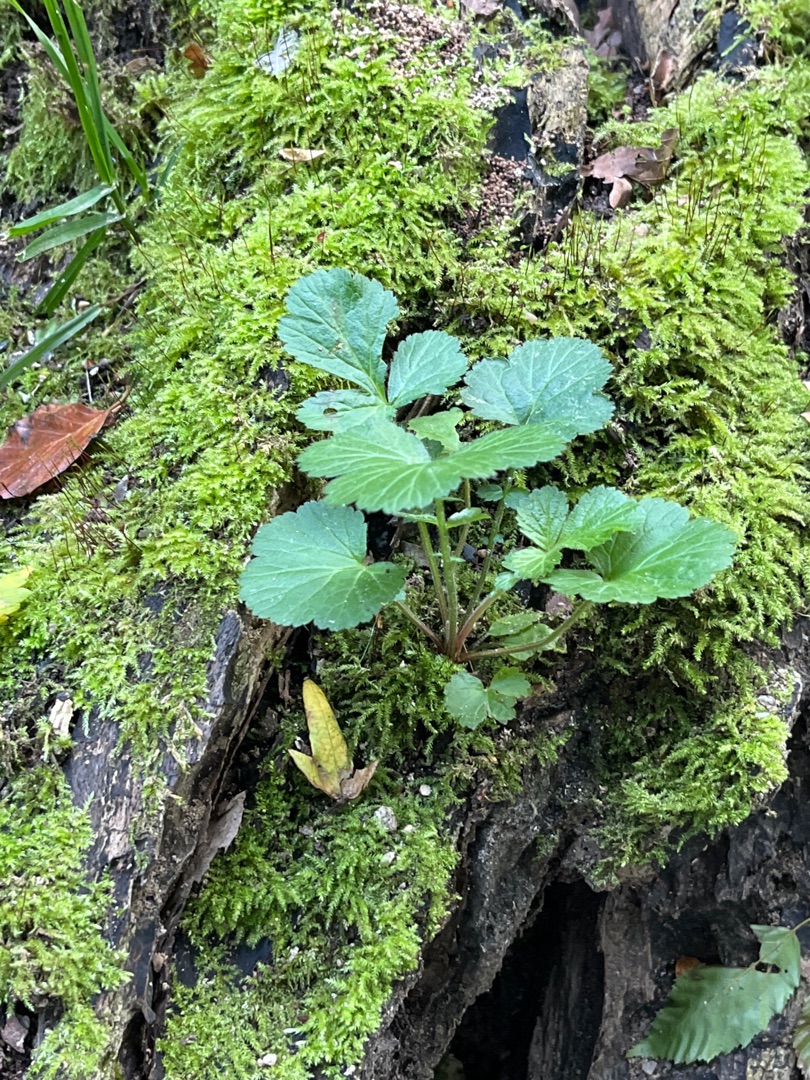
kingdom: Plantae
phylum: Tracheophyta
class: Magnoliopsida
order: Rosales
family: Rosaceae
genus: Geum
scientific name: Geum urbanum
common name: Feber-nellikerod
